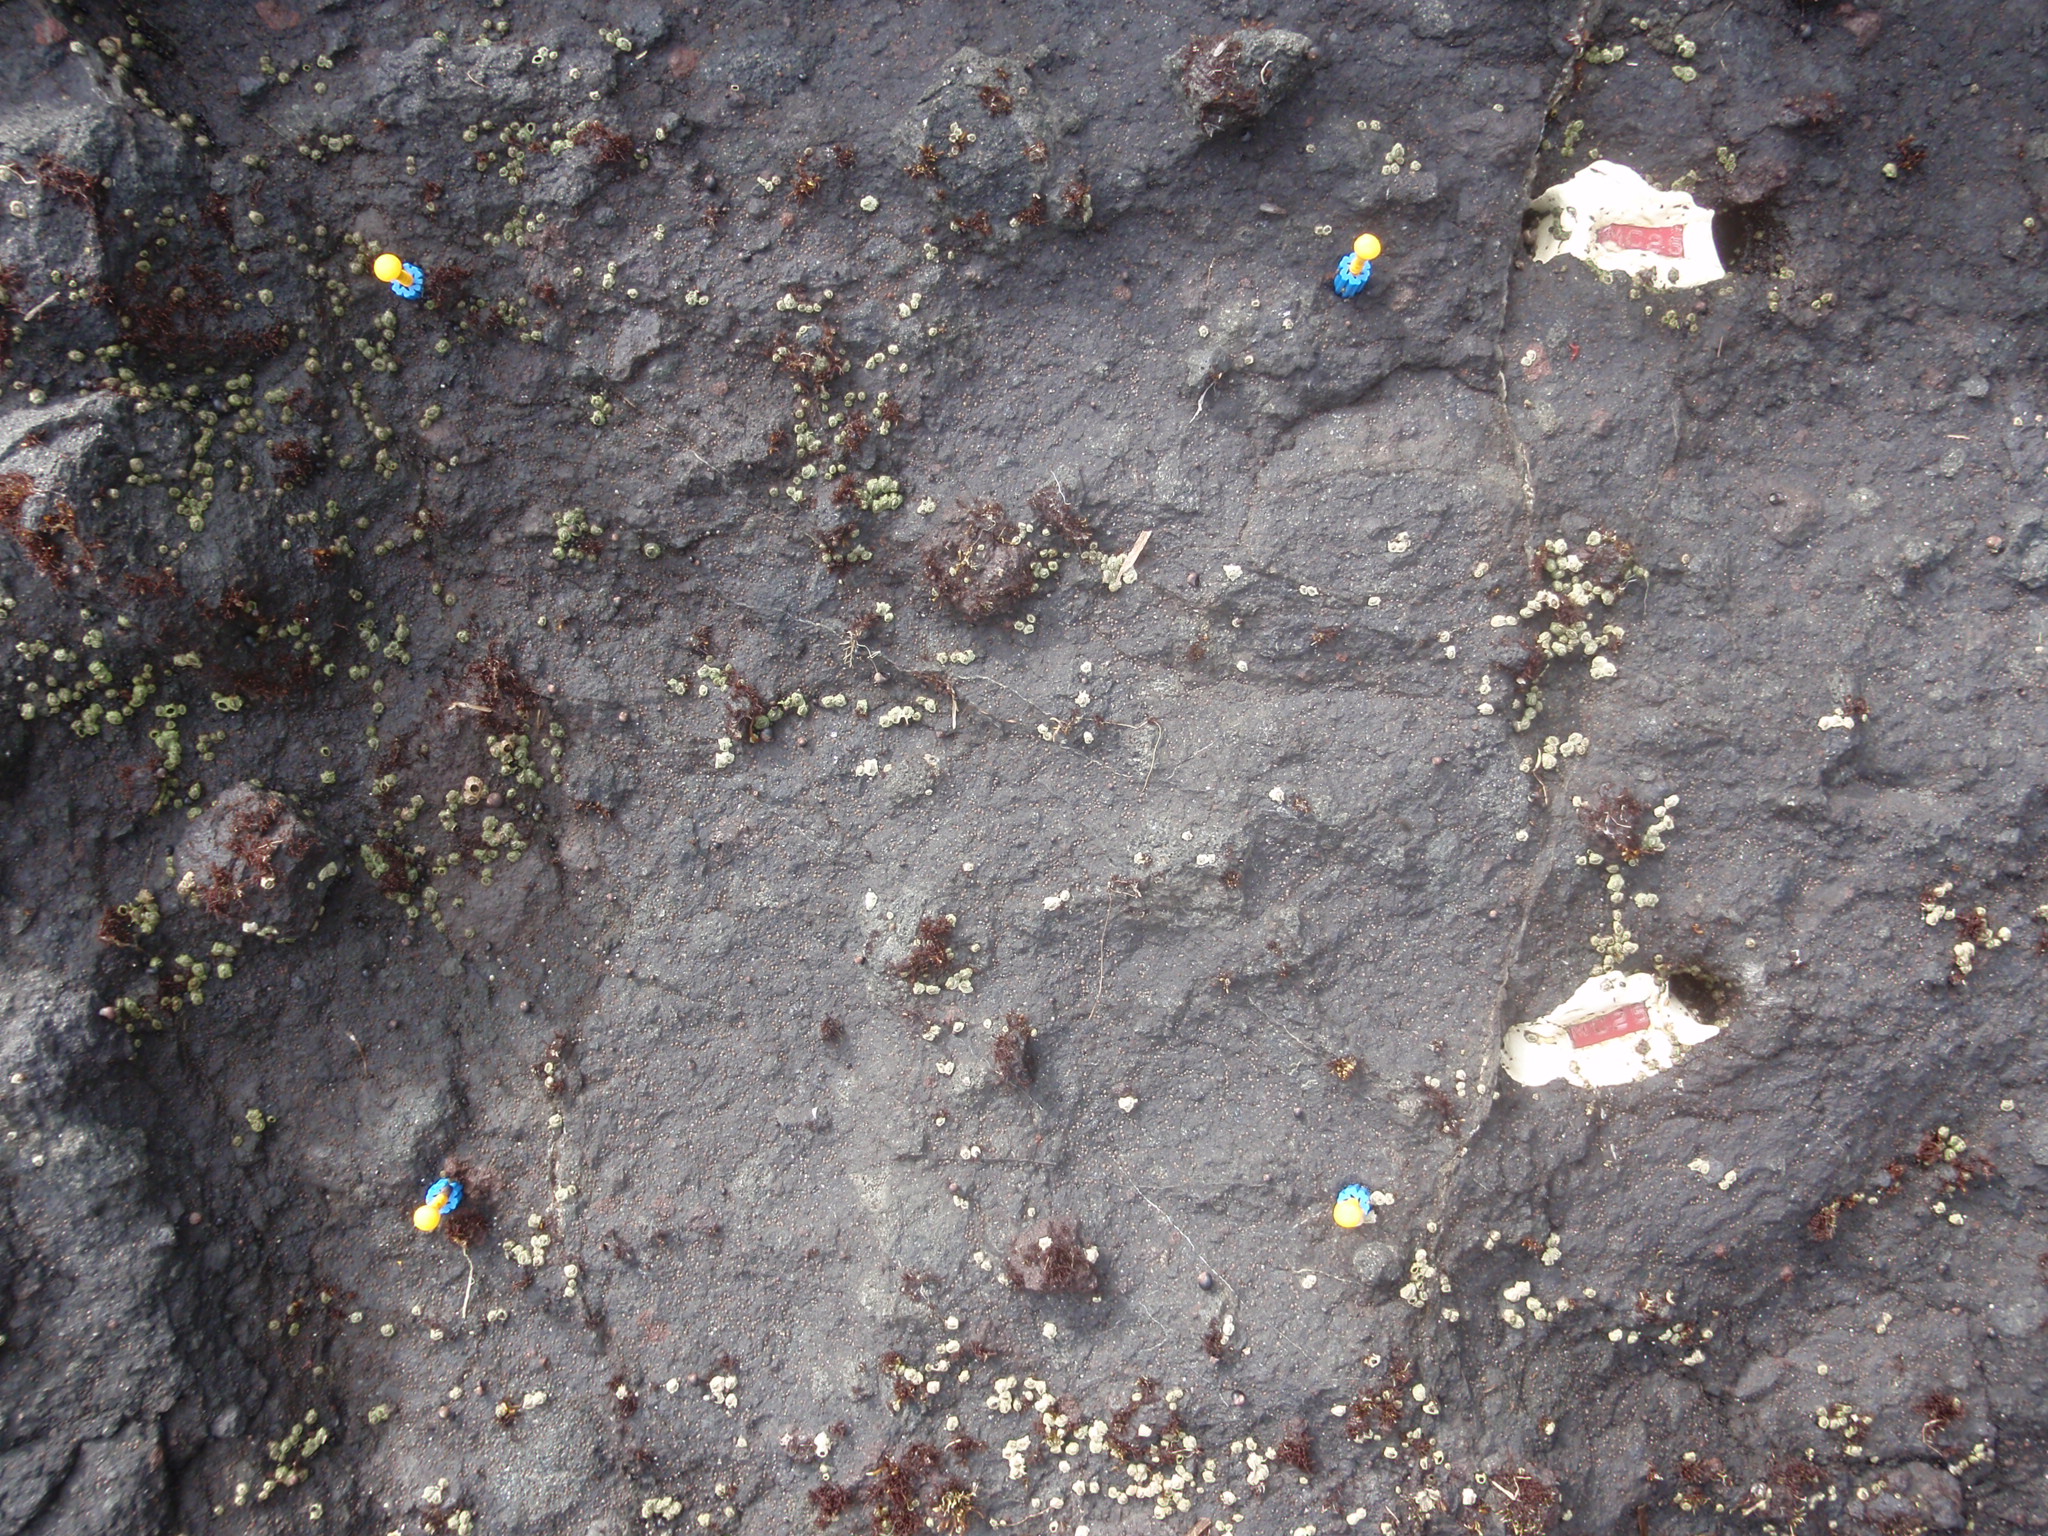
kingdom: Plantae
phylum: Rhodophyta
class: Florideophyceae
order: Gigartinales
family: Endocladiaceae
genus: Gloiopeltis
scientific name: Gloiopeltis furcata
